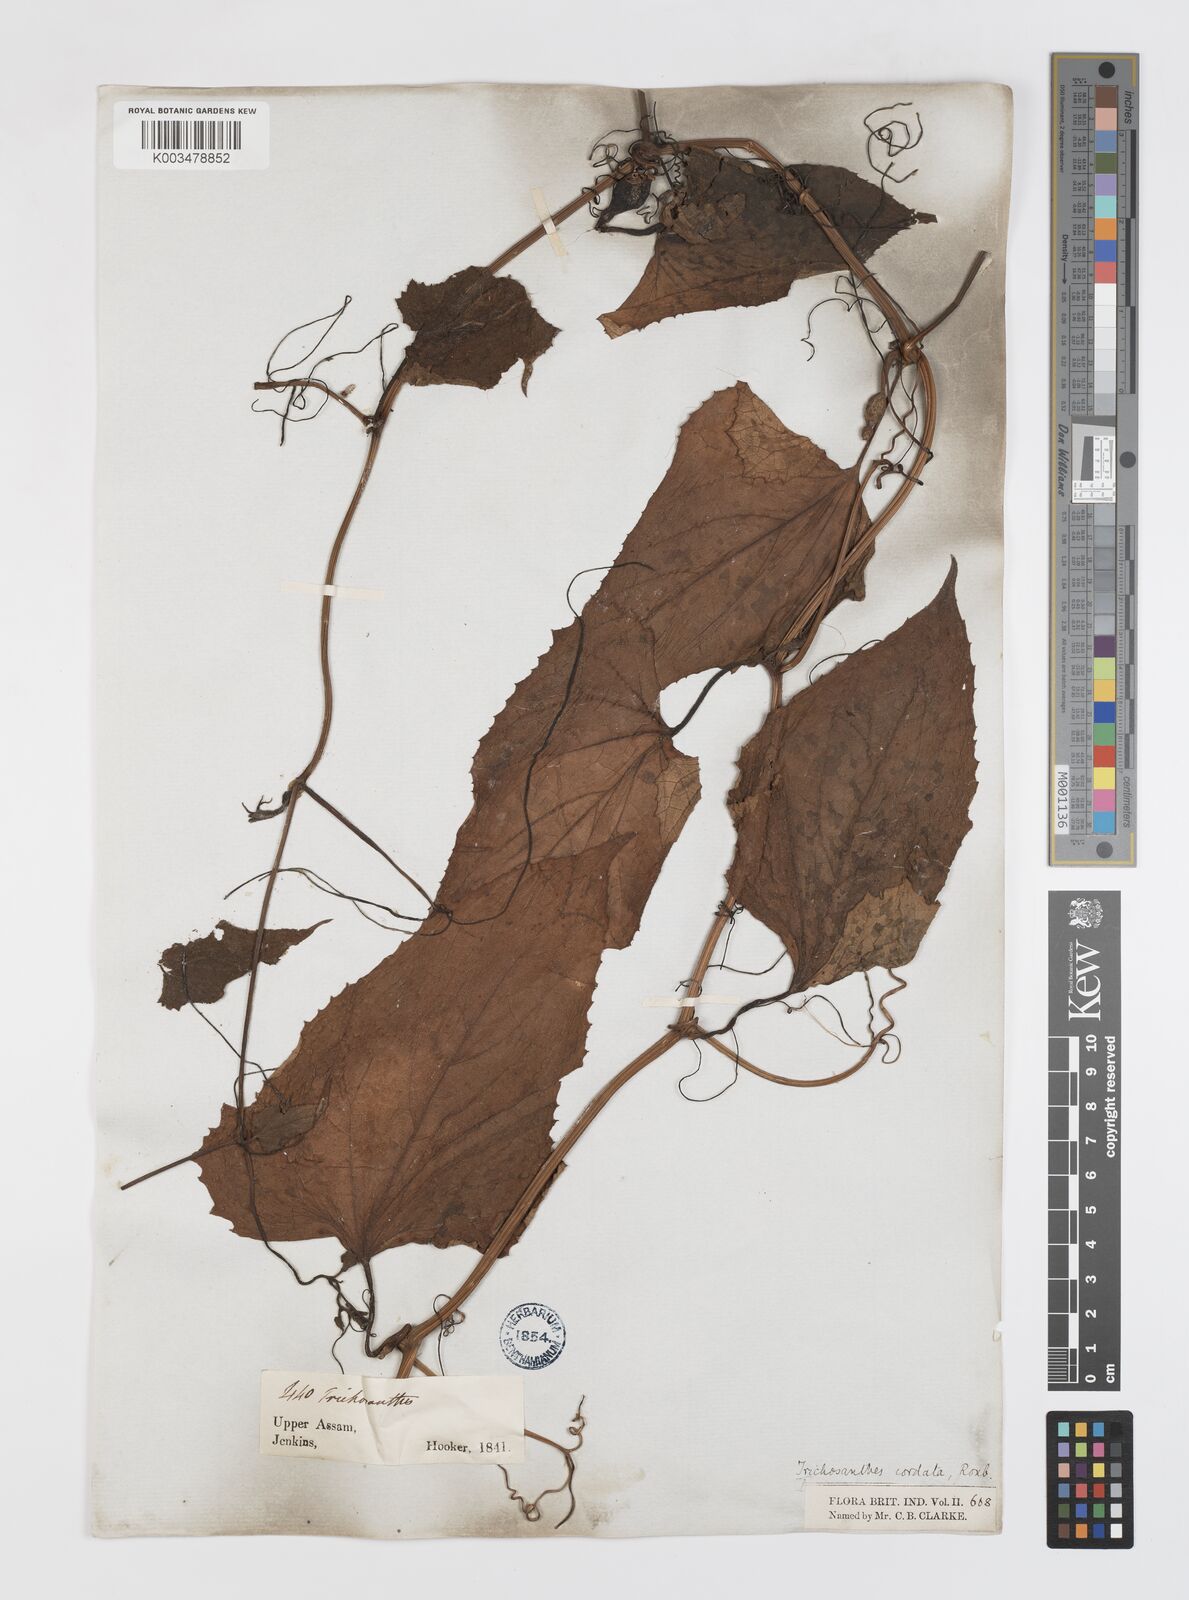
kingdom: Plantae
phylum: Tracheophyta
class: Magnoliopsida
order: Cucurbitales
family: Cucurbitaceae
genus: Trichosanthes
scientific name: Trichosanthes cordata
